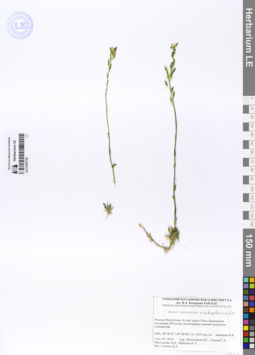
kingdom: Plantae
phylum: Tracheophyta
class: Magnoliopsida
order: Brassicales
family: Brassicaceae
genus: Draba
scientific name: Draba lanceolata
